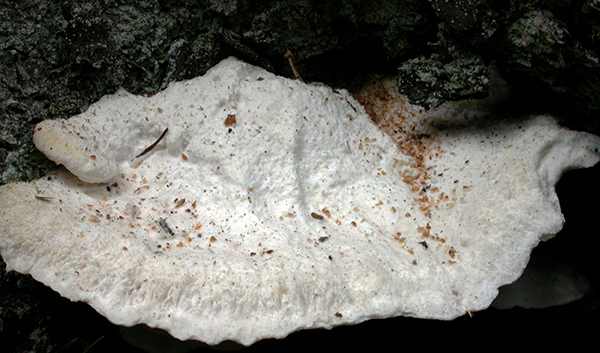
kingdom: Fungi
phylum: Basidiomycota
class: Agaricomycetes
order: Polyporales
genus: Amaropostia
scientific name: Amaropostia stiptica
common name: bitter kødporesvamp
